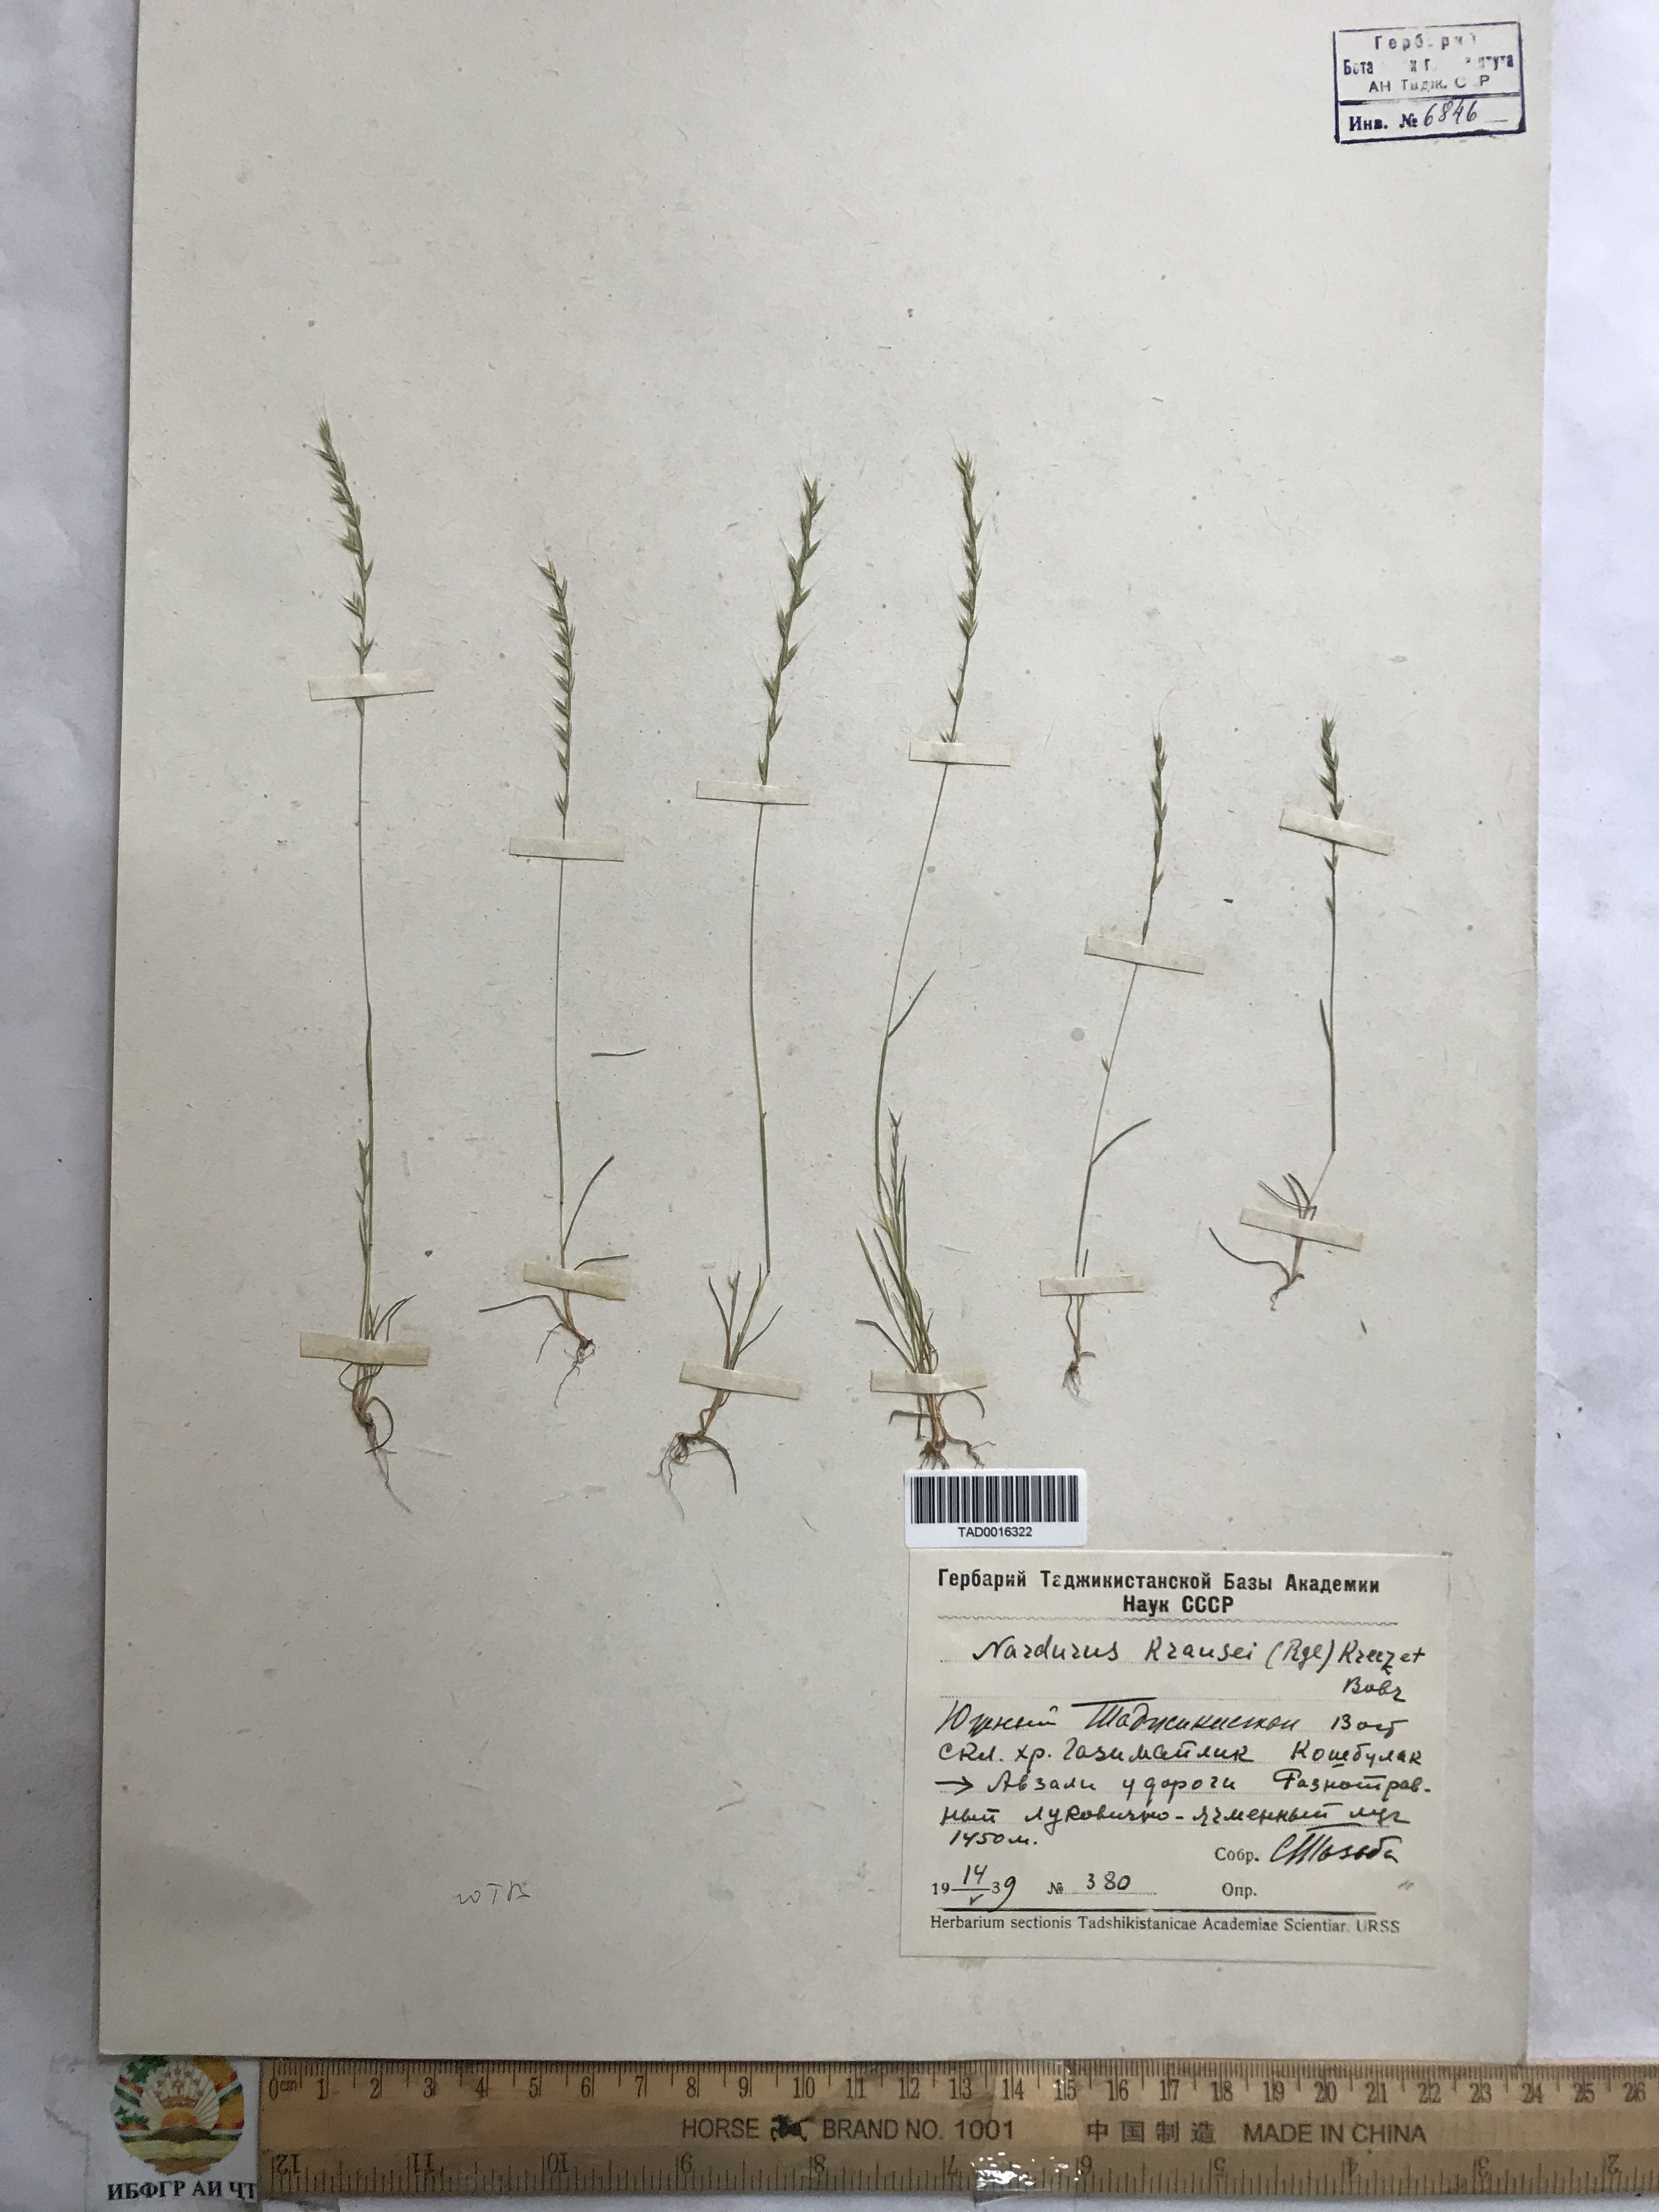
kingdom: Plantae
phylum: Tracheophyta
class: Liliopsida
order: Poales
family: Poaceae
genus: Festuca
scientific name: Festuca maritima
